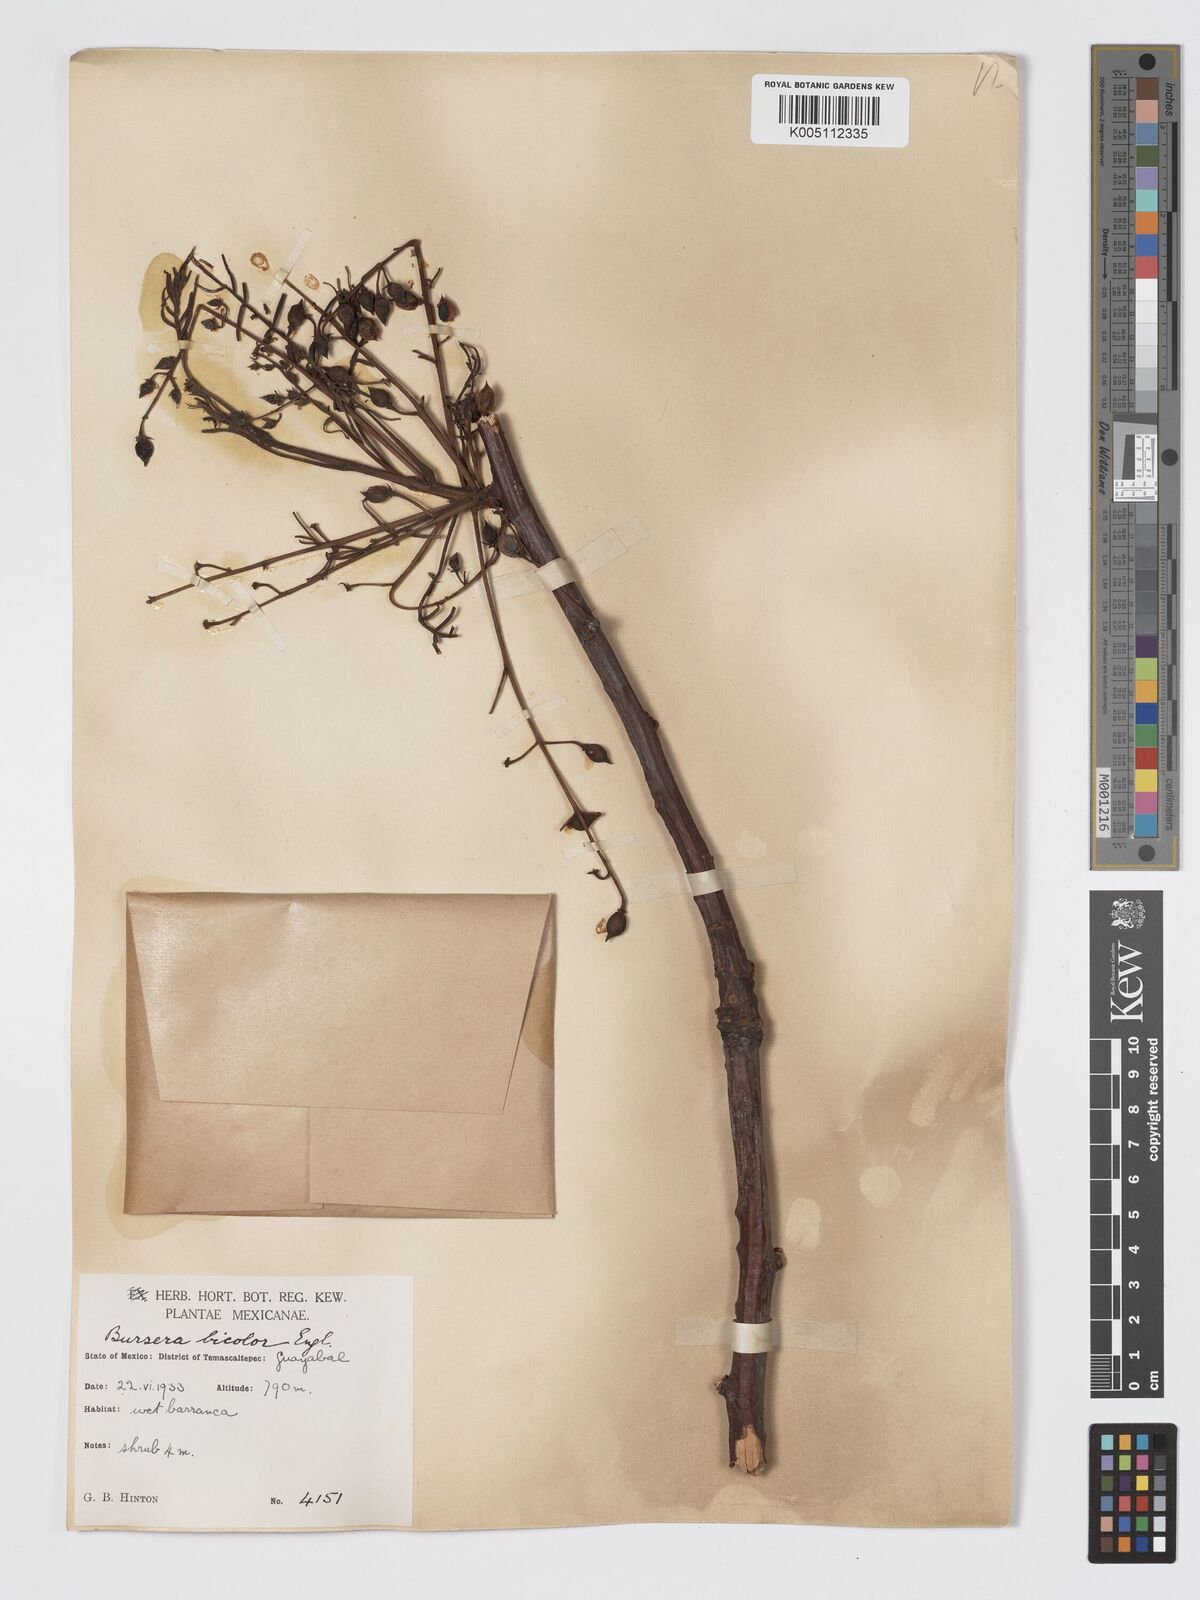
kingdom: Plantae
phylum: Tracheophyta
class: Magnoliopsida
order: Sapindales
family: Burseraceae
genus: Bursera
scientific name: Bursera bicolor
